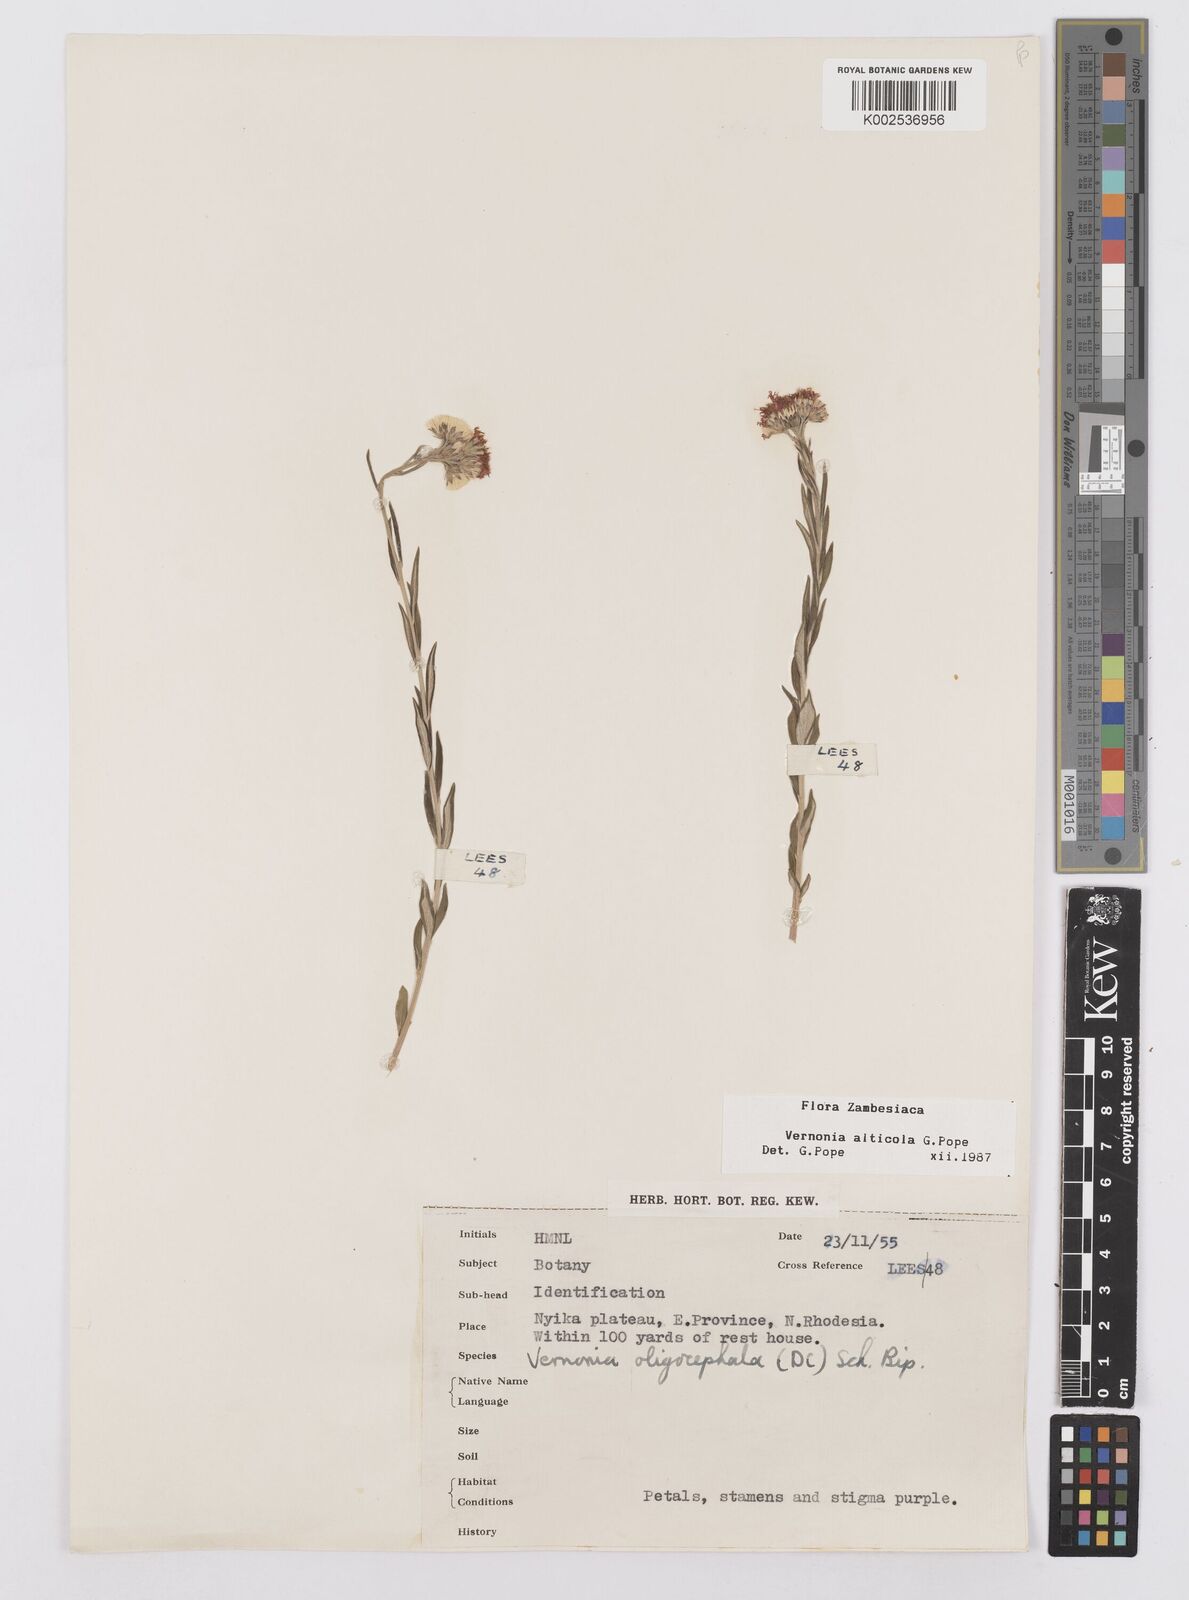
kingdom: Plantae
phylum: Tracheophyta
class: Magnoliopsida
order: Asterales
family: Asteraceae
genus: Vernonia
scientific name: Vernonia alticola
